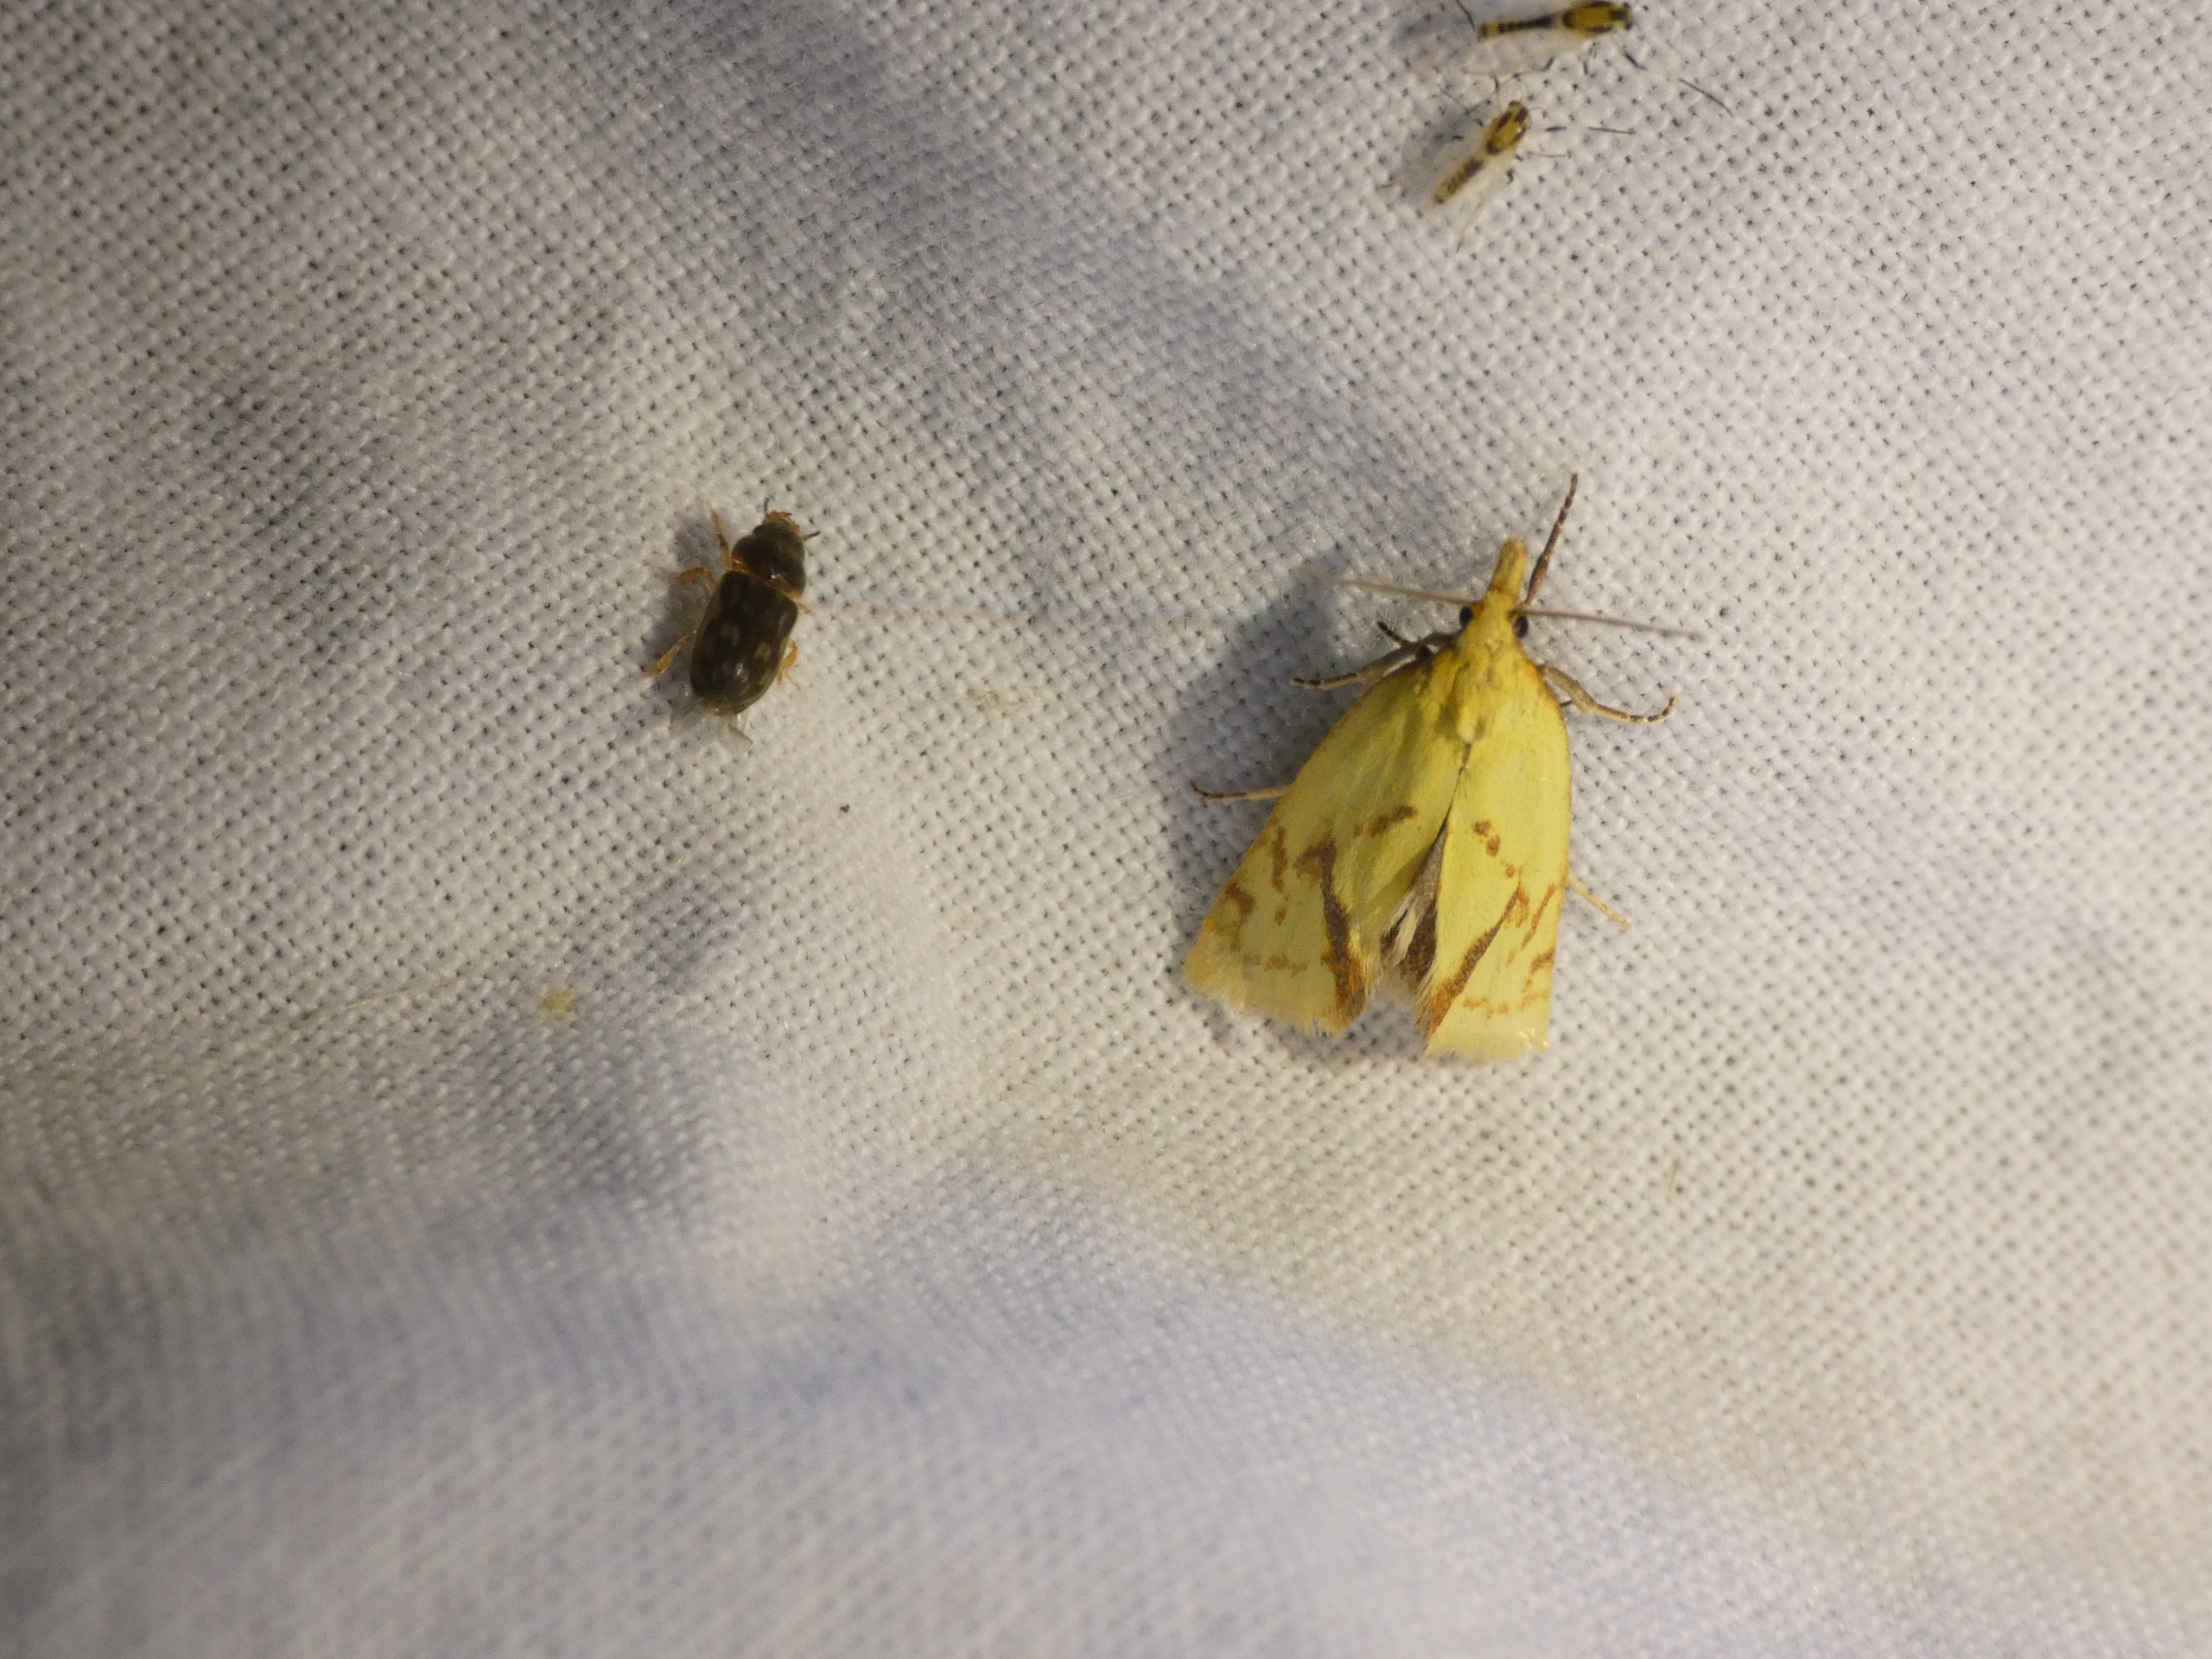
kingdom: Animalia
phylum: Arthropoda
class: Insecta
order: Lepidoptera
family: Tortricidae
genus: Agapeta
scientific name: Agapeta hamana
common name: Tidselgulvikler
